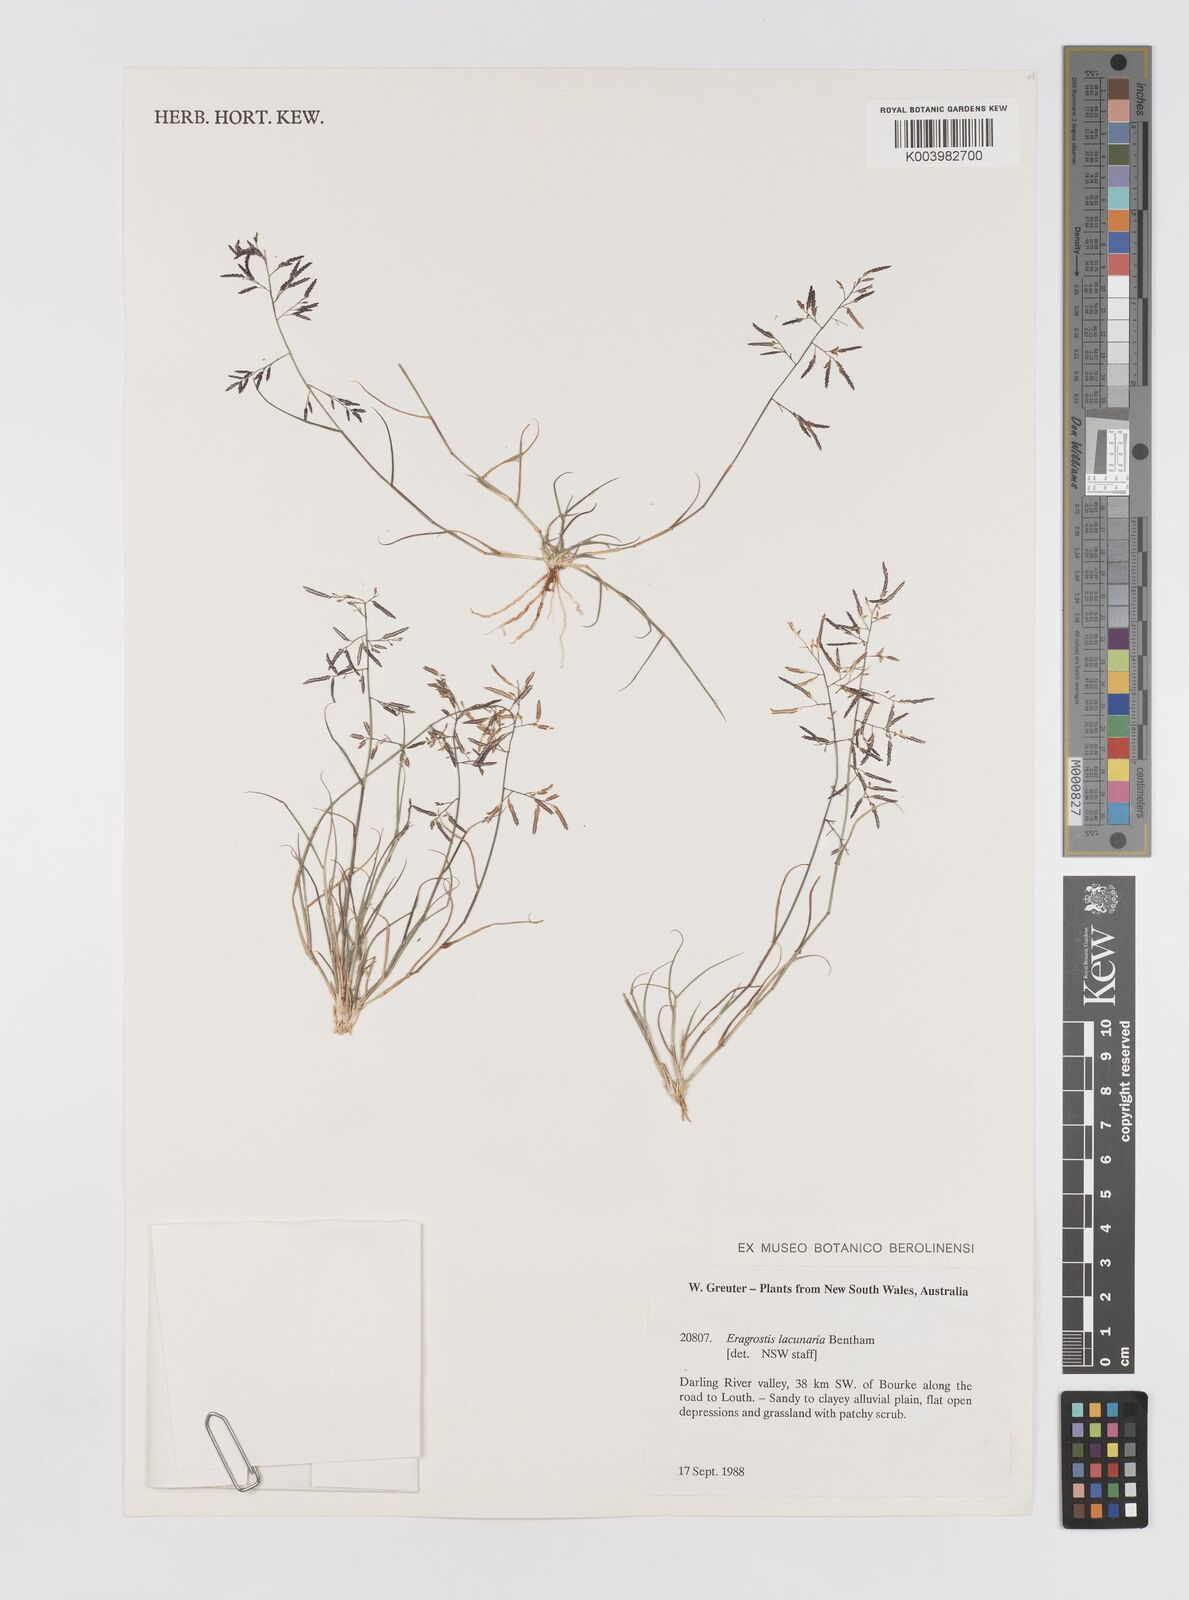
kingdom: Plantae
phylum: Tracheophyta
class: Liliopsida
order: Poales
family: Poaceae
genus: Eragrostis
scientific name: Eragrostis lacunaria
